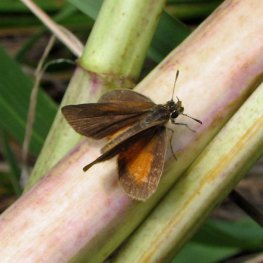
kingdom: Animalia
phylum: Arthropoda
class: Insecta
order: Lepidoptera
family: Hesperiidae
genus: Ancyloxypha
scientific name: Ancyloxypha numitor
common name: Least Skipper
